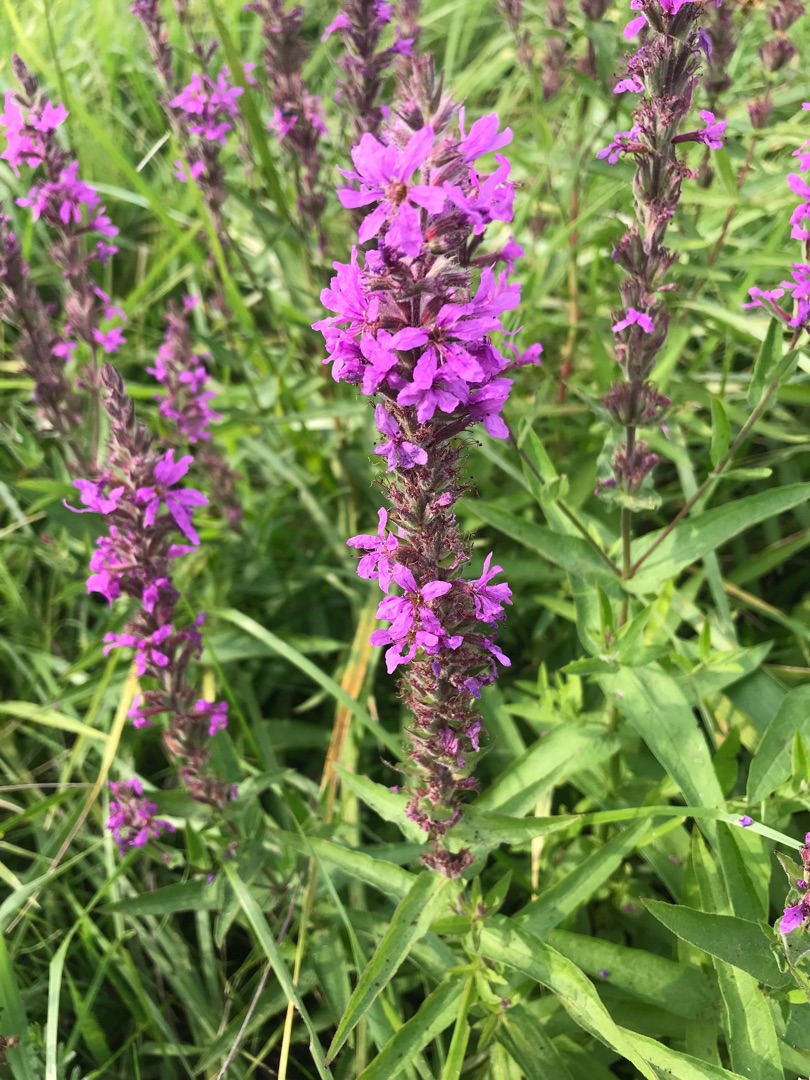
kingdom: Plantae
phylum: Tracheophyta
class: Magnoliopsida
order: Myrtales
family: Lythraceae
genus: Lythrum
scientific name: Lythrum salicaria
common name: Kattehale
